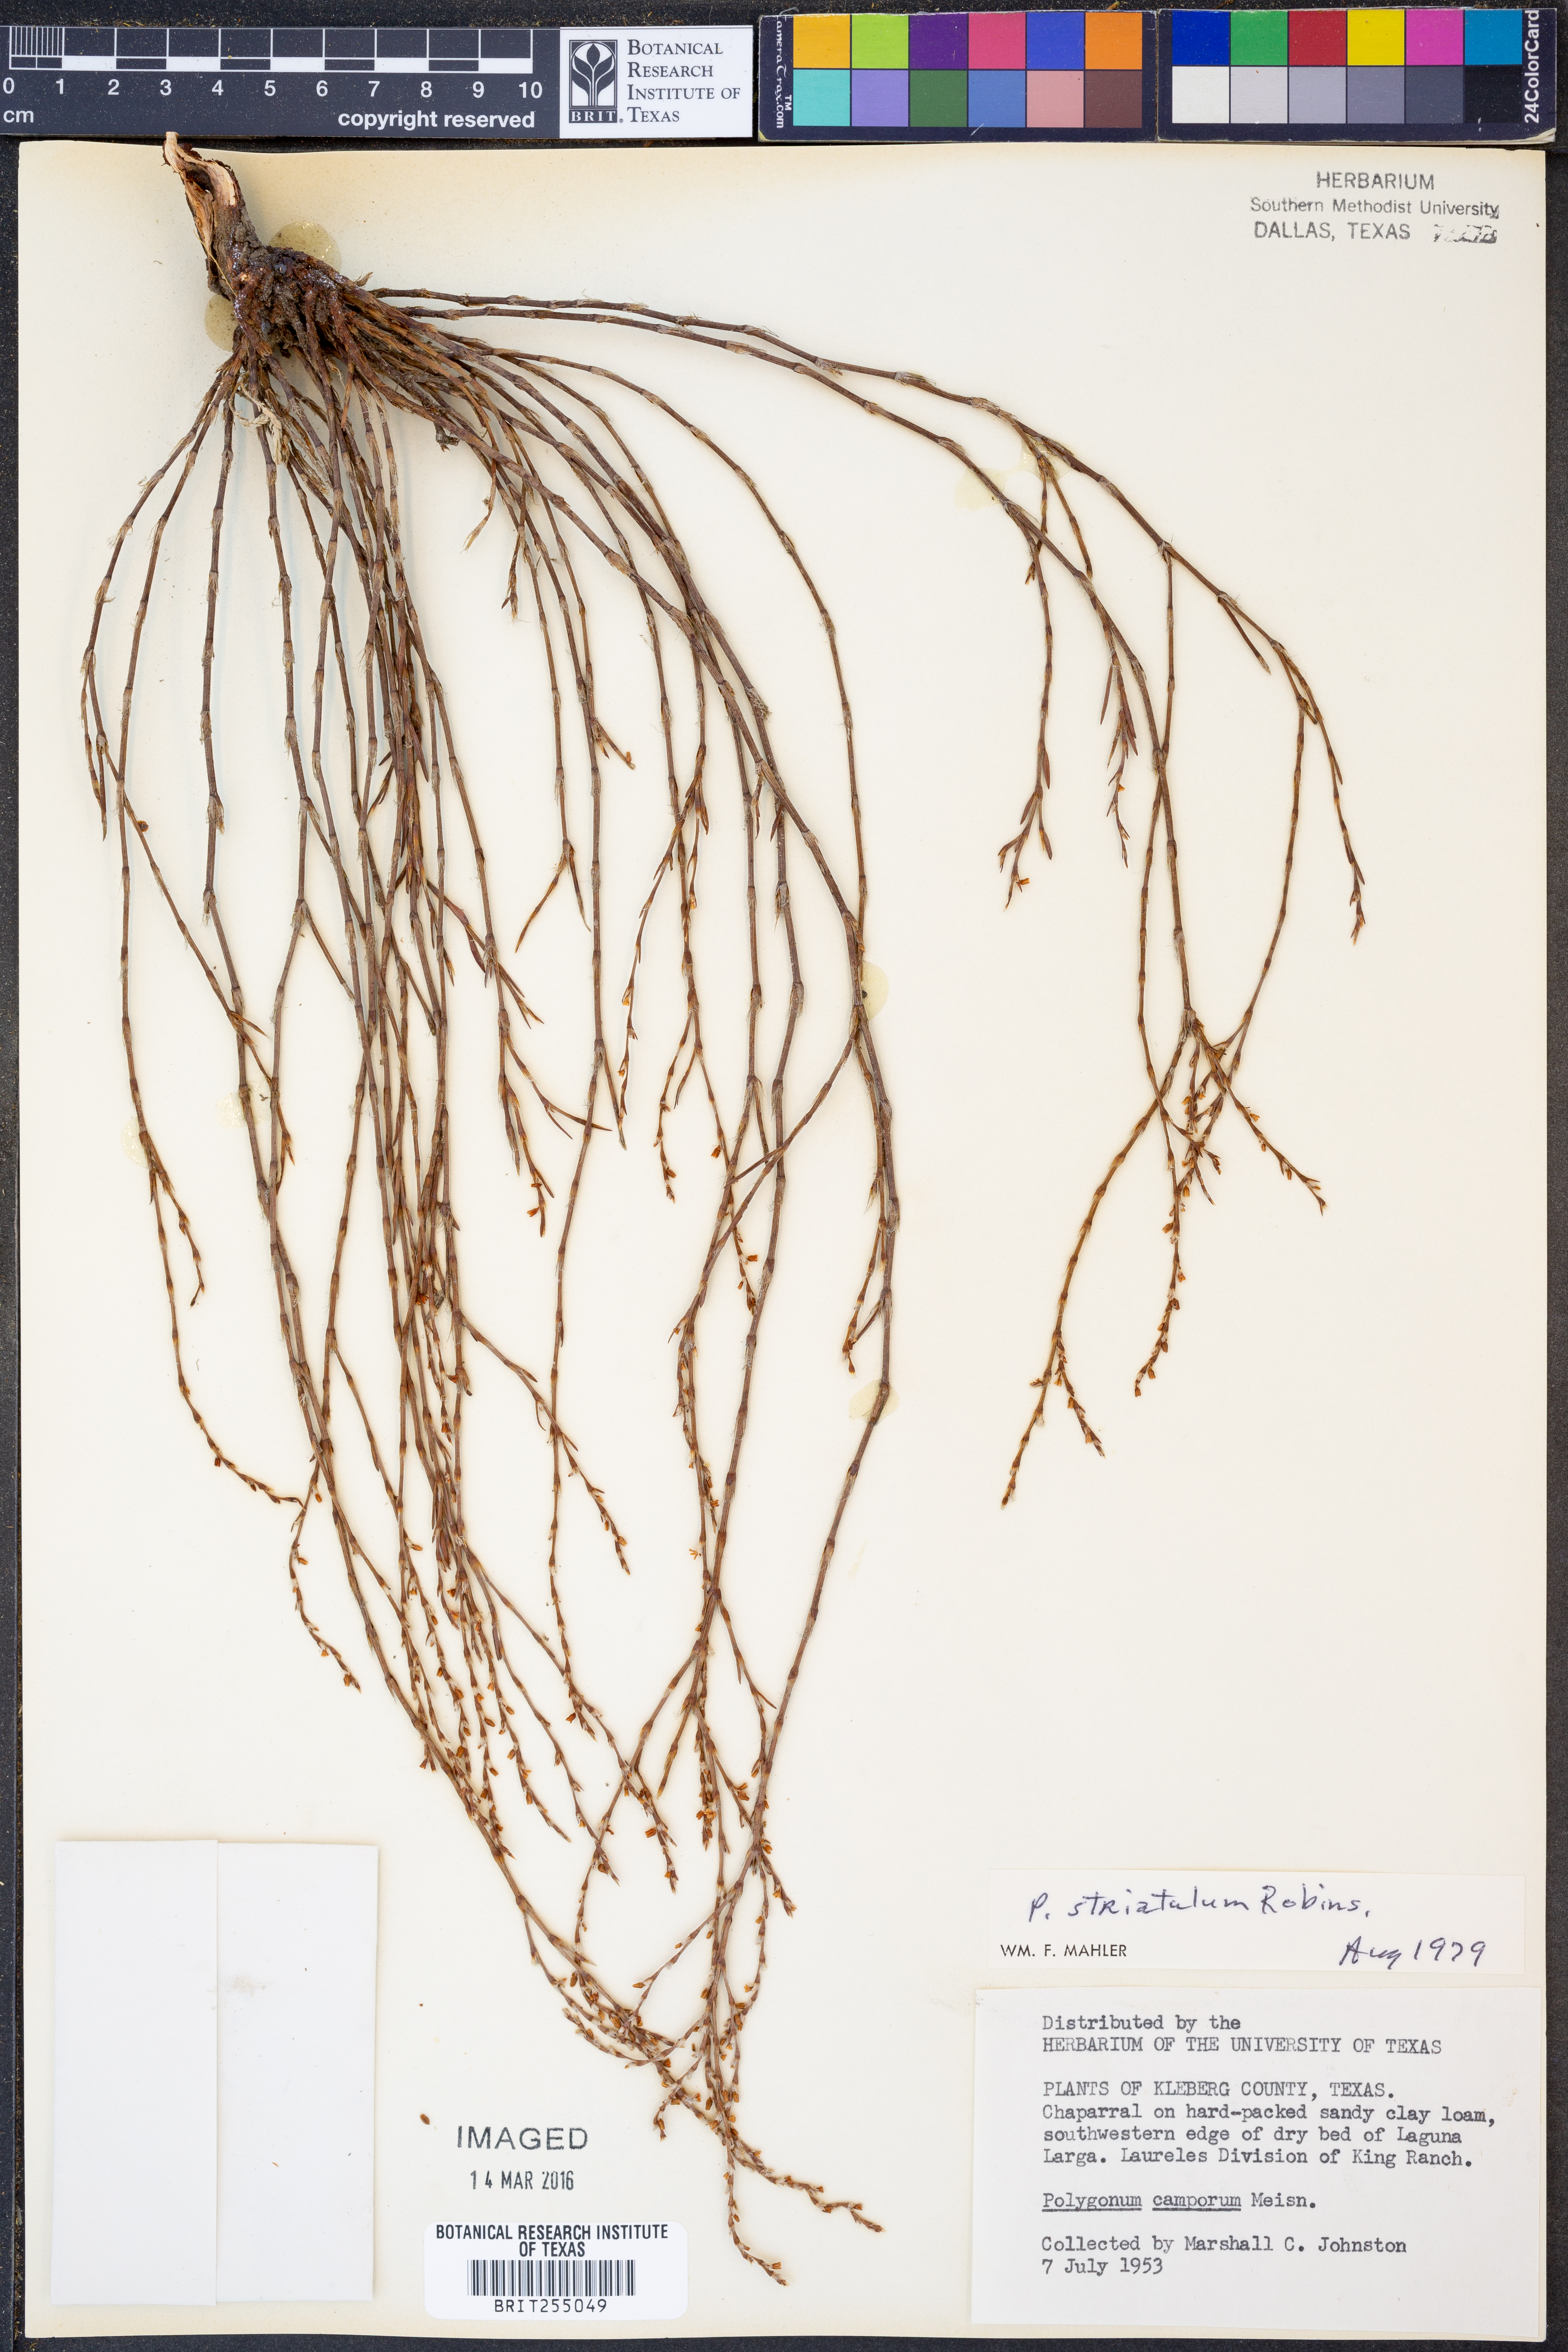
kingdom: Plantae
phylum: Tracheophyta
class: Magnoliopsida
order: Caryophyllales
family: Polygonaceae
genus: Polygonum
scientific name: Polygonum striatulum
